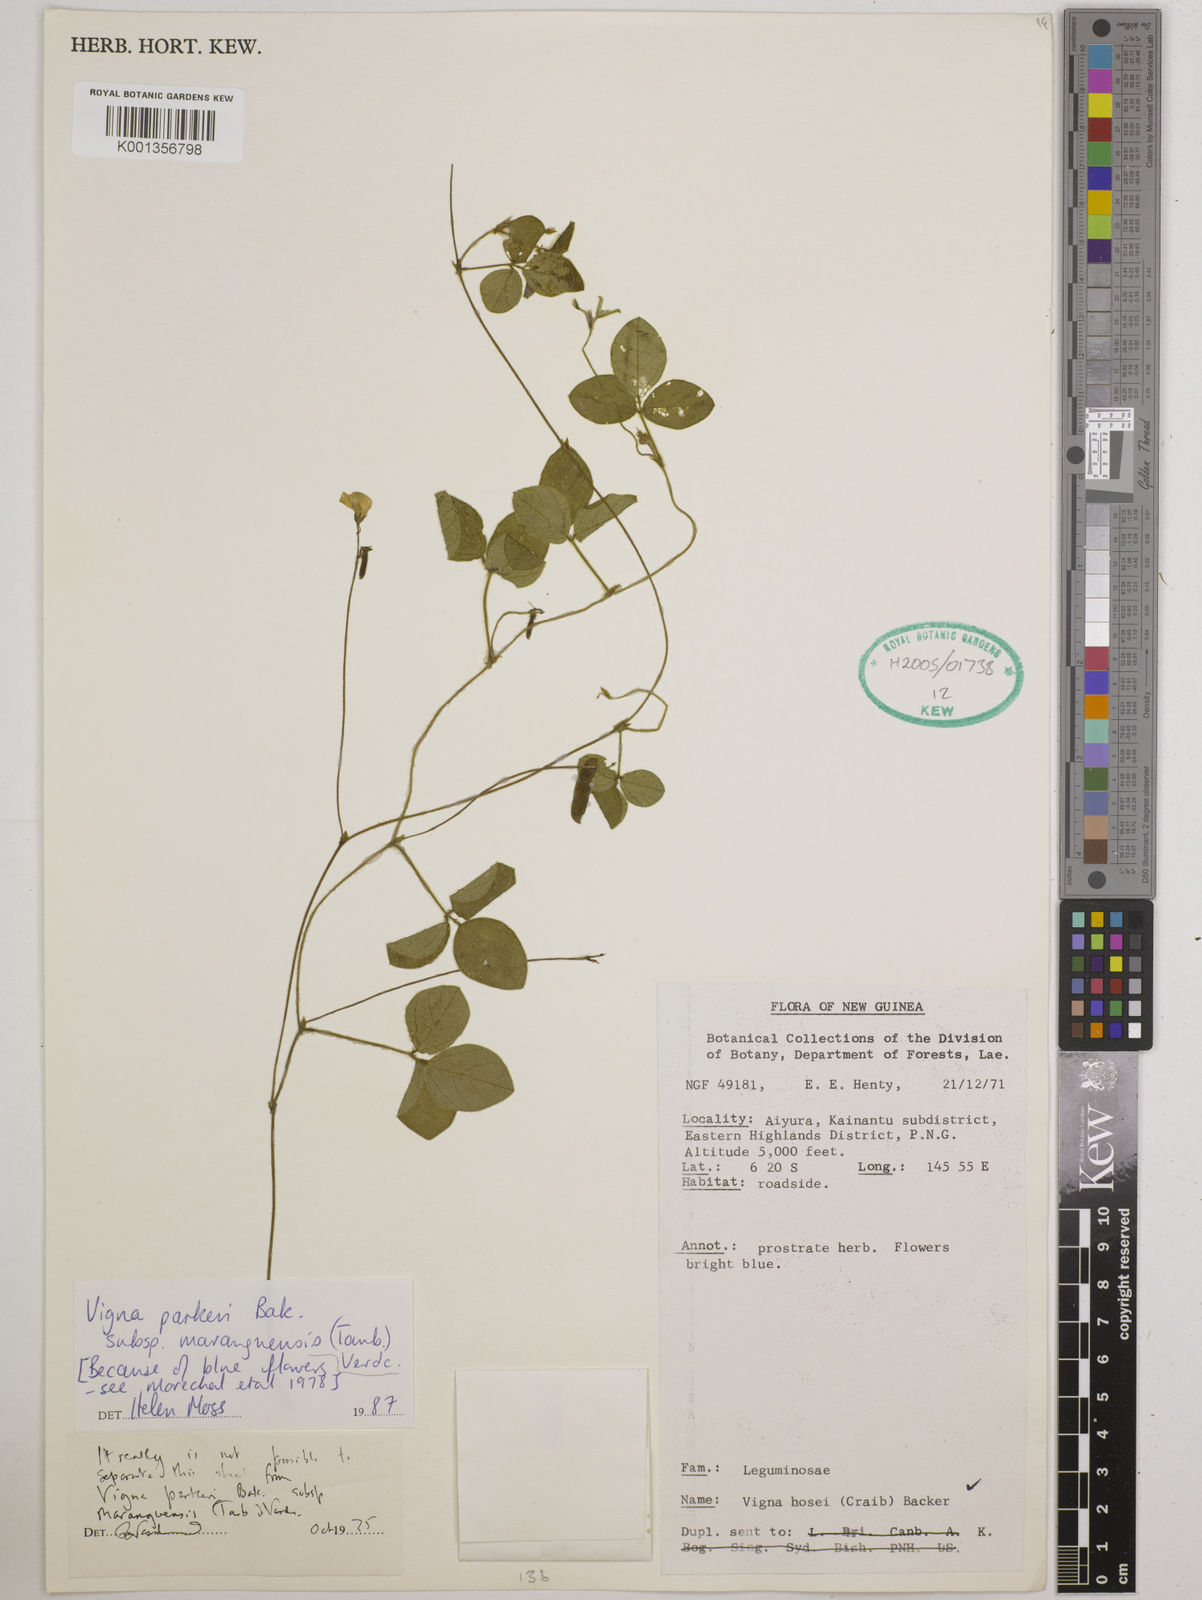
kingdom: Plantae
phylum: Tracheophyta
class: Magnoliopsida
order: Fabales
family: Fabaceae
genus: Vigna
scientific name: Vigna
